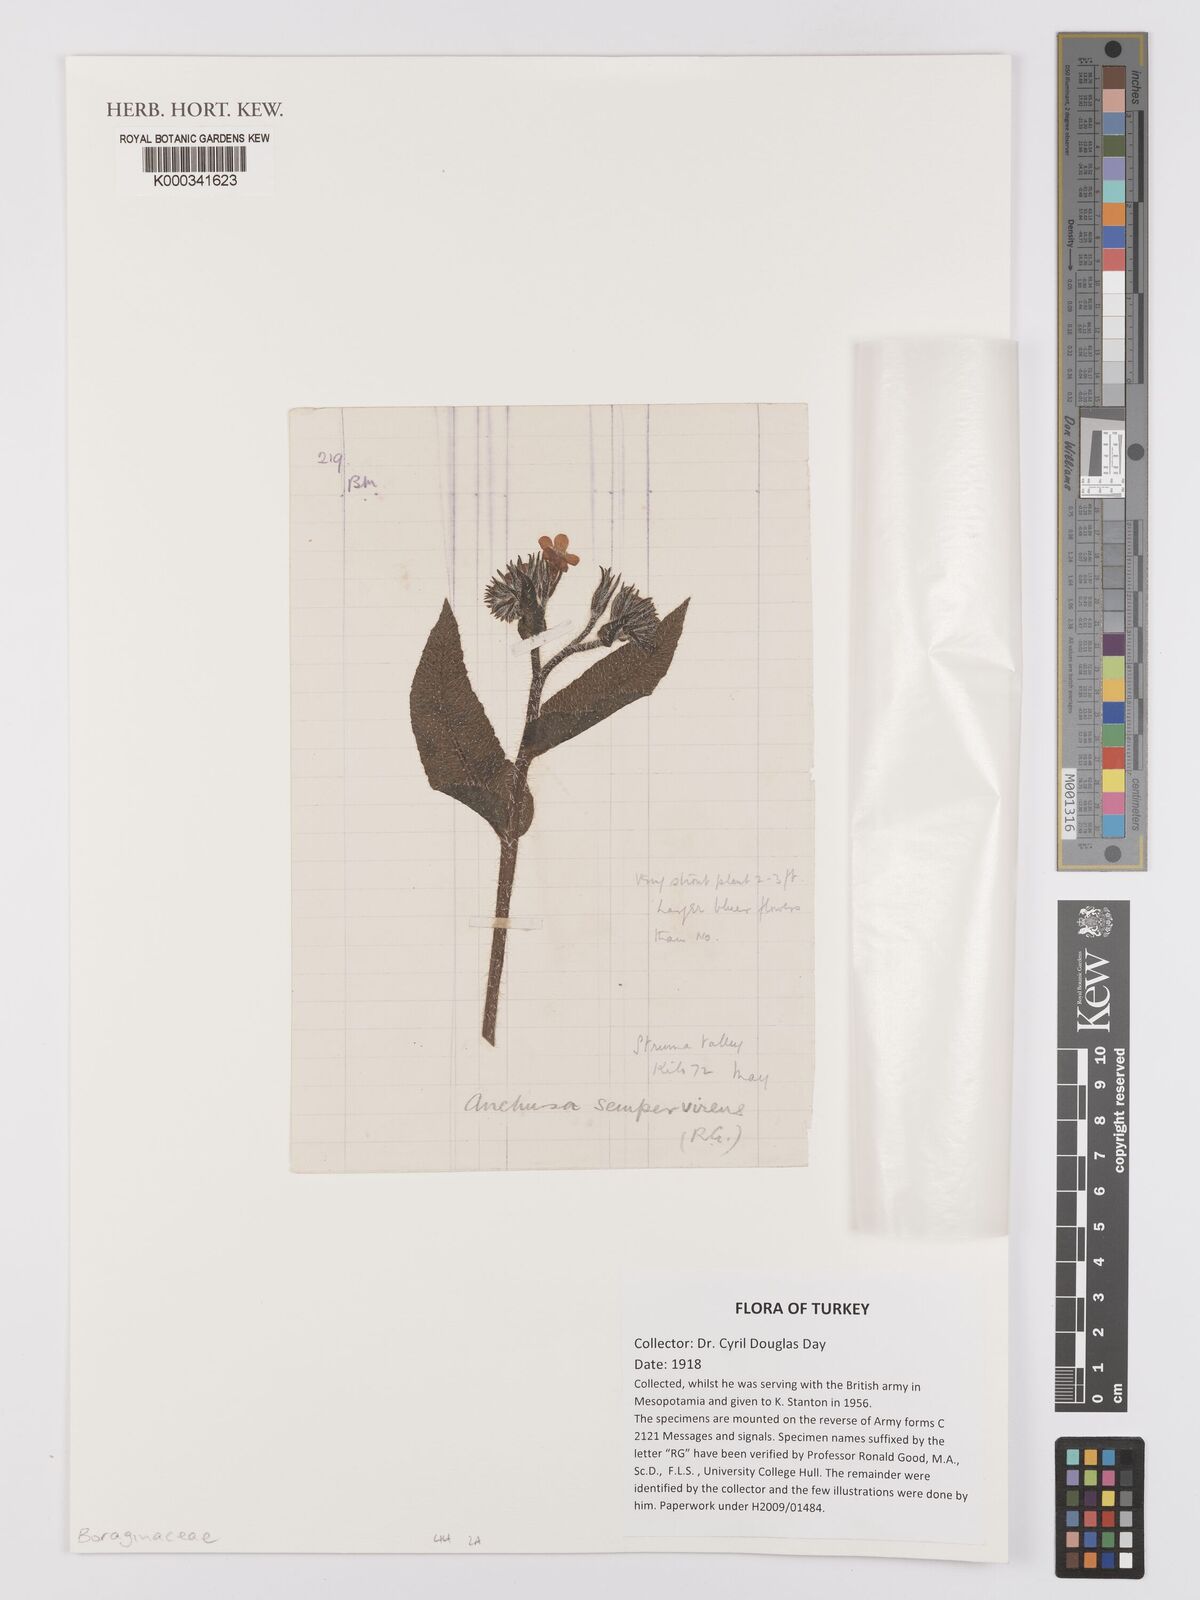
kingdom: Plantae
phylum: Tracheophyta
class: Magnoliopsida
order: Boraginales
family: Boraginaceae
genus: Pentaglottis
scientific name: Pentaglottis sempervirens
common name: Green alkanet
